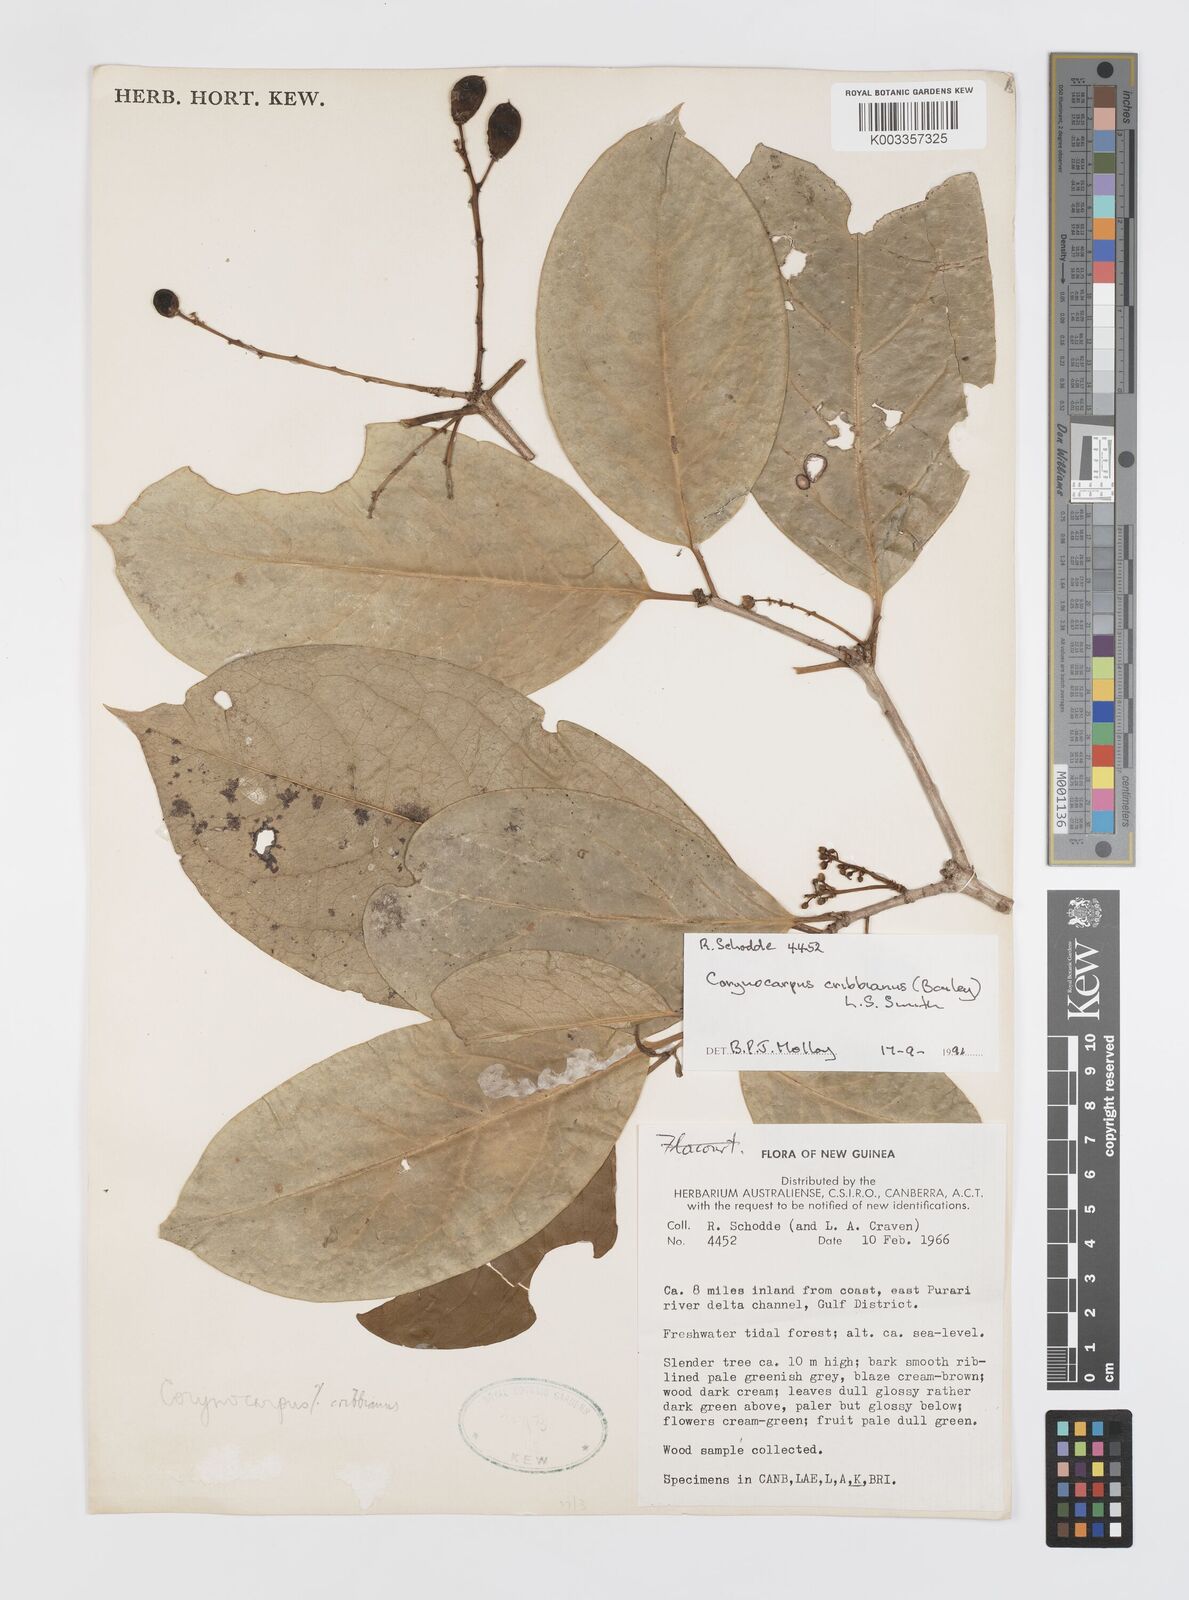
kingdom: Plantae
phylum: Tracheophyta
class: Magnoliopsida
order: Cucurbitales
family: Corynocarpaceae
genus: Corynocarpus
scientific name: Corynocarpus cribbianus
